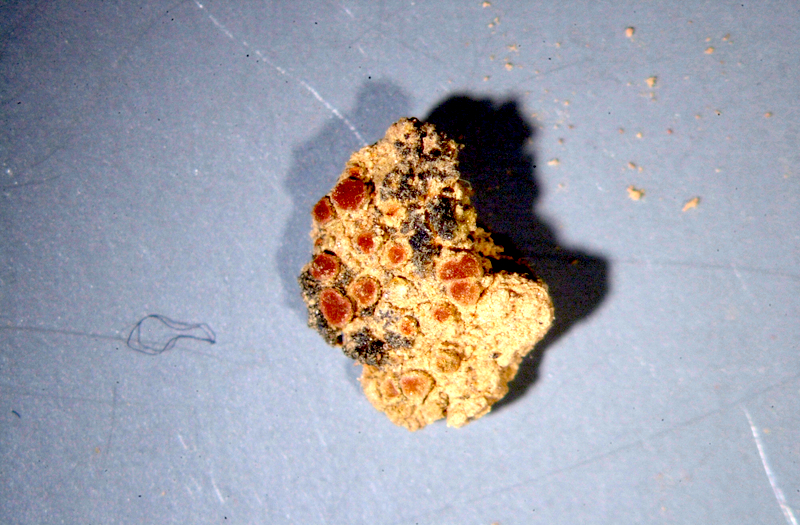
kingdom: Fungi
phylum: Ascomycota
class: Lecanoromycetes
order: Lecanorales
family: Parmeliaceae
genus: Lichen
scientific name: Lichen
